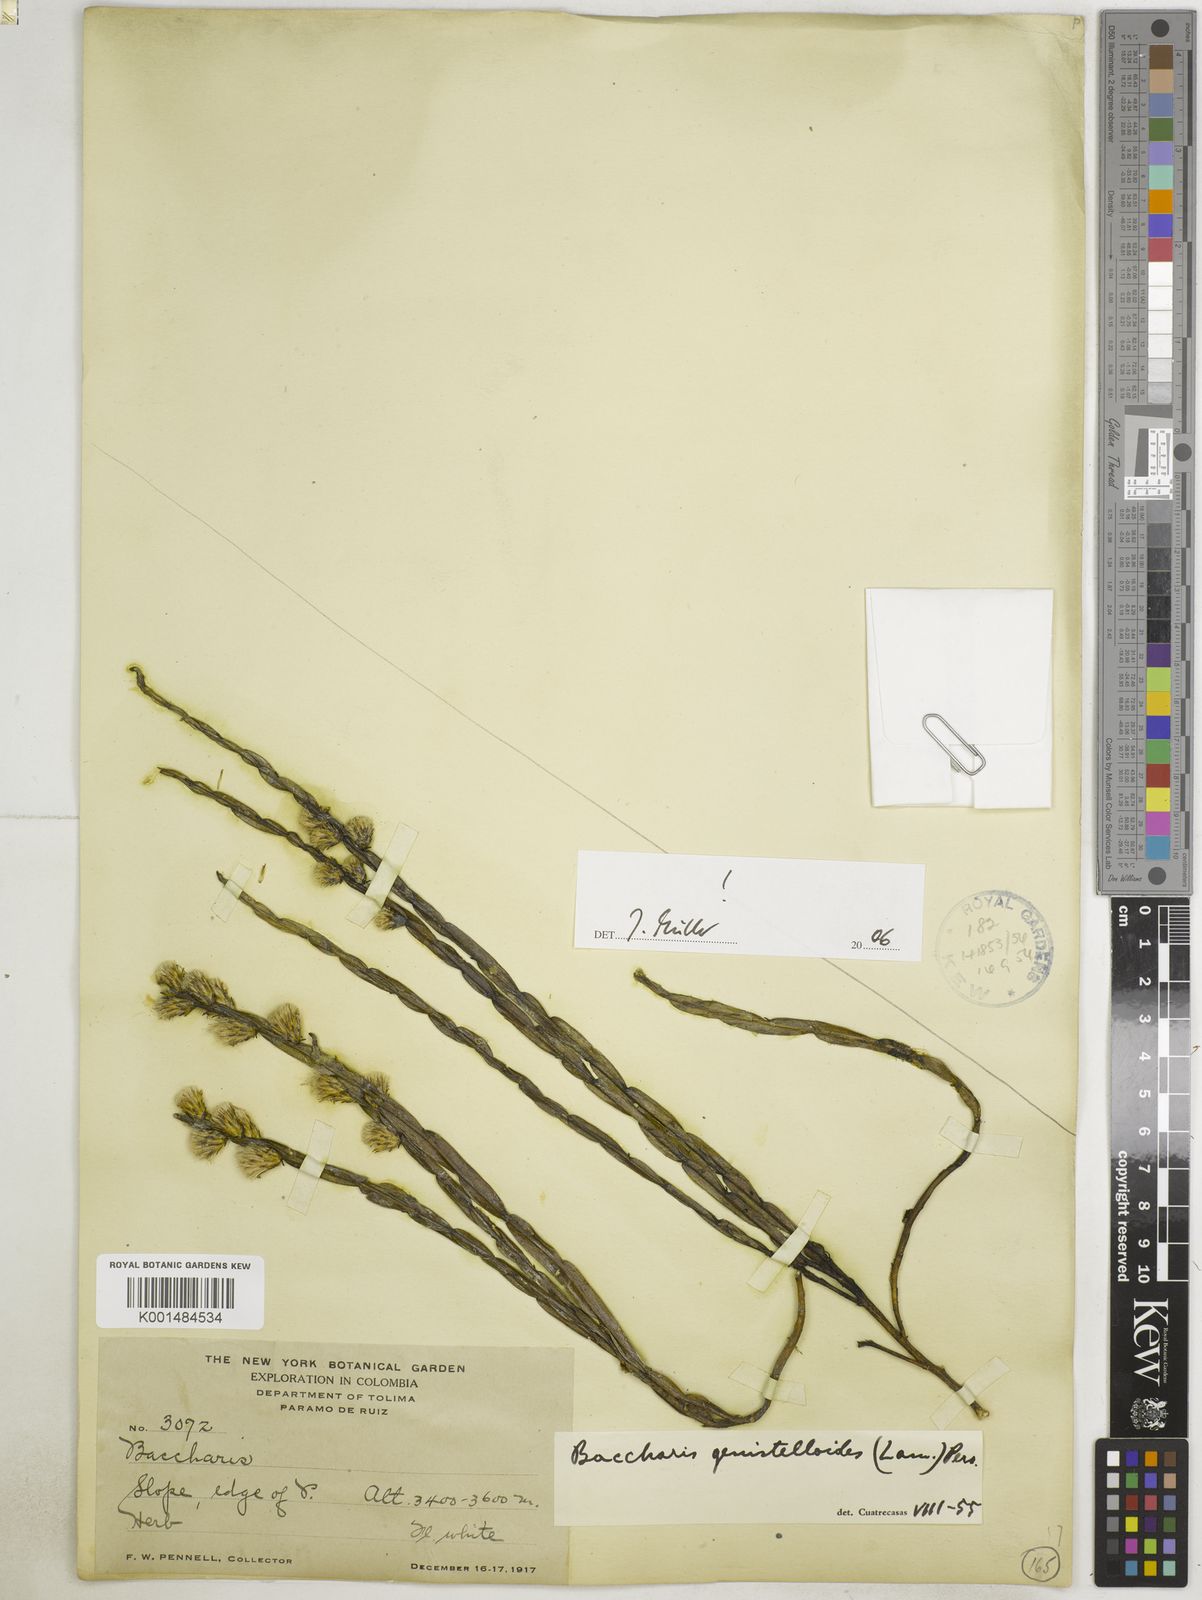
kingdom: Plantae
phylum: Tracheophyta
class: Magnoliopsida
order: Asterales
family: Asteraceae
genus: Baccharis
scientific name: Baccharis genistelloides
